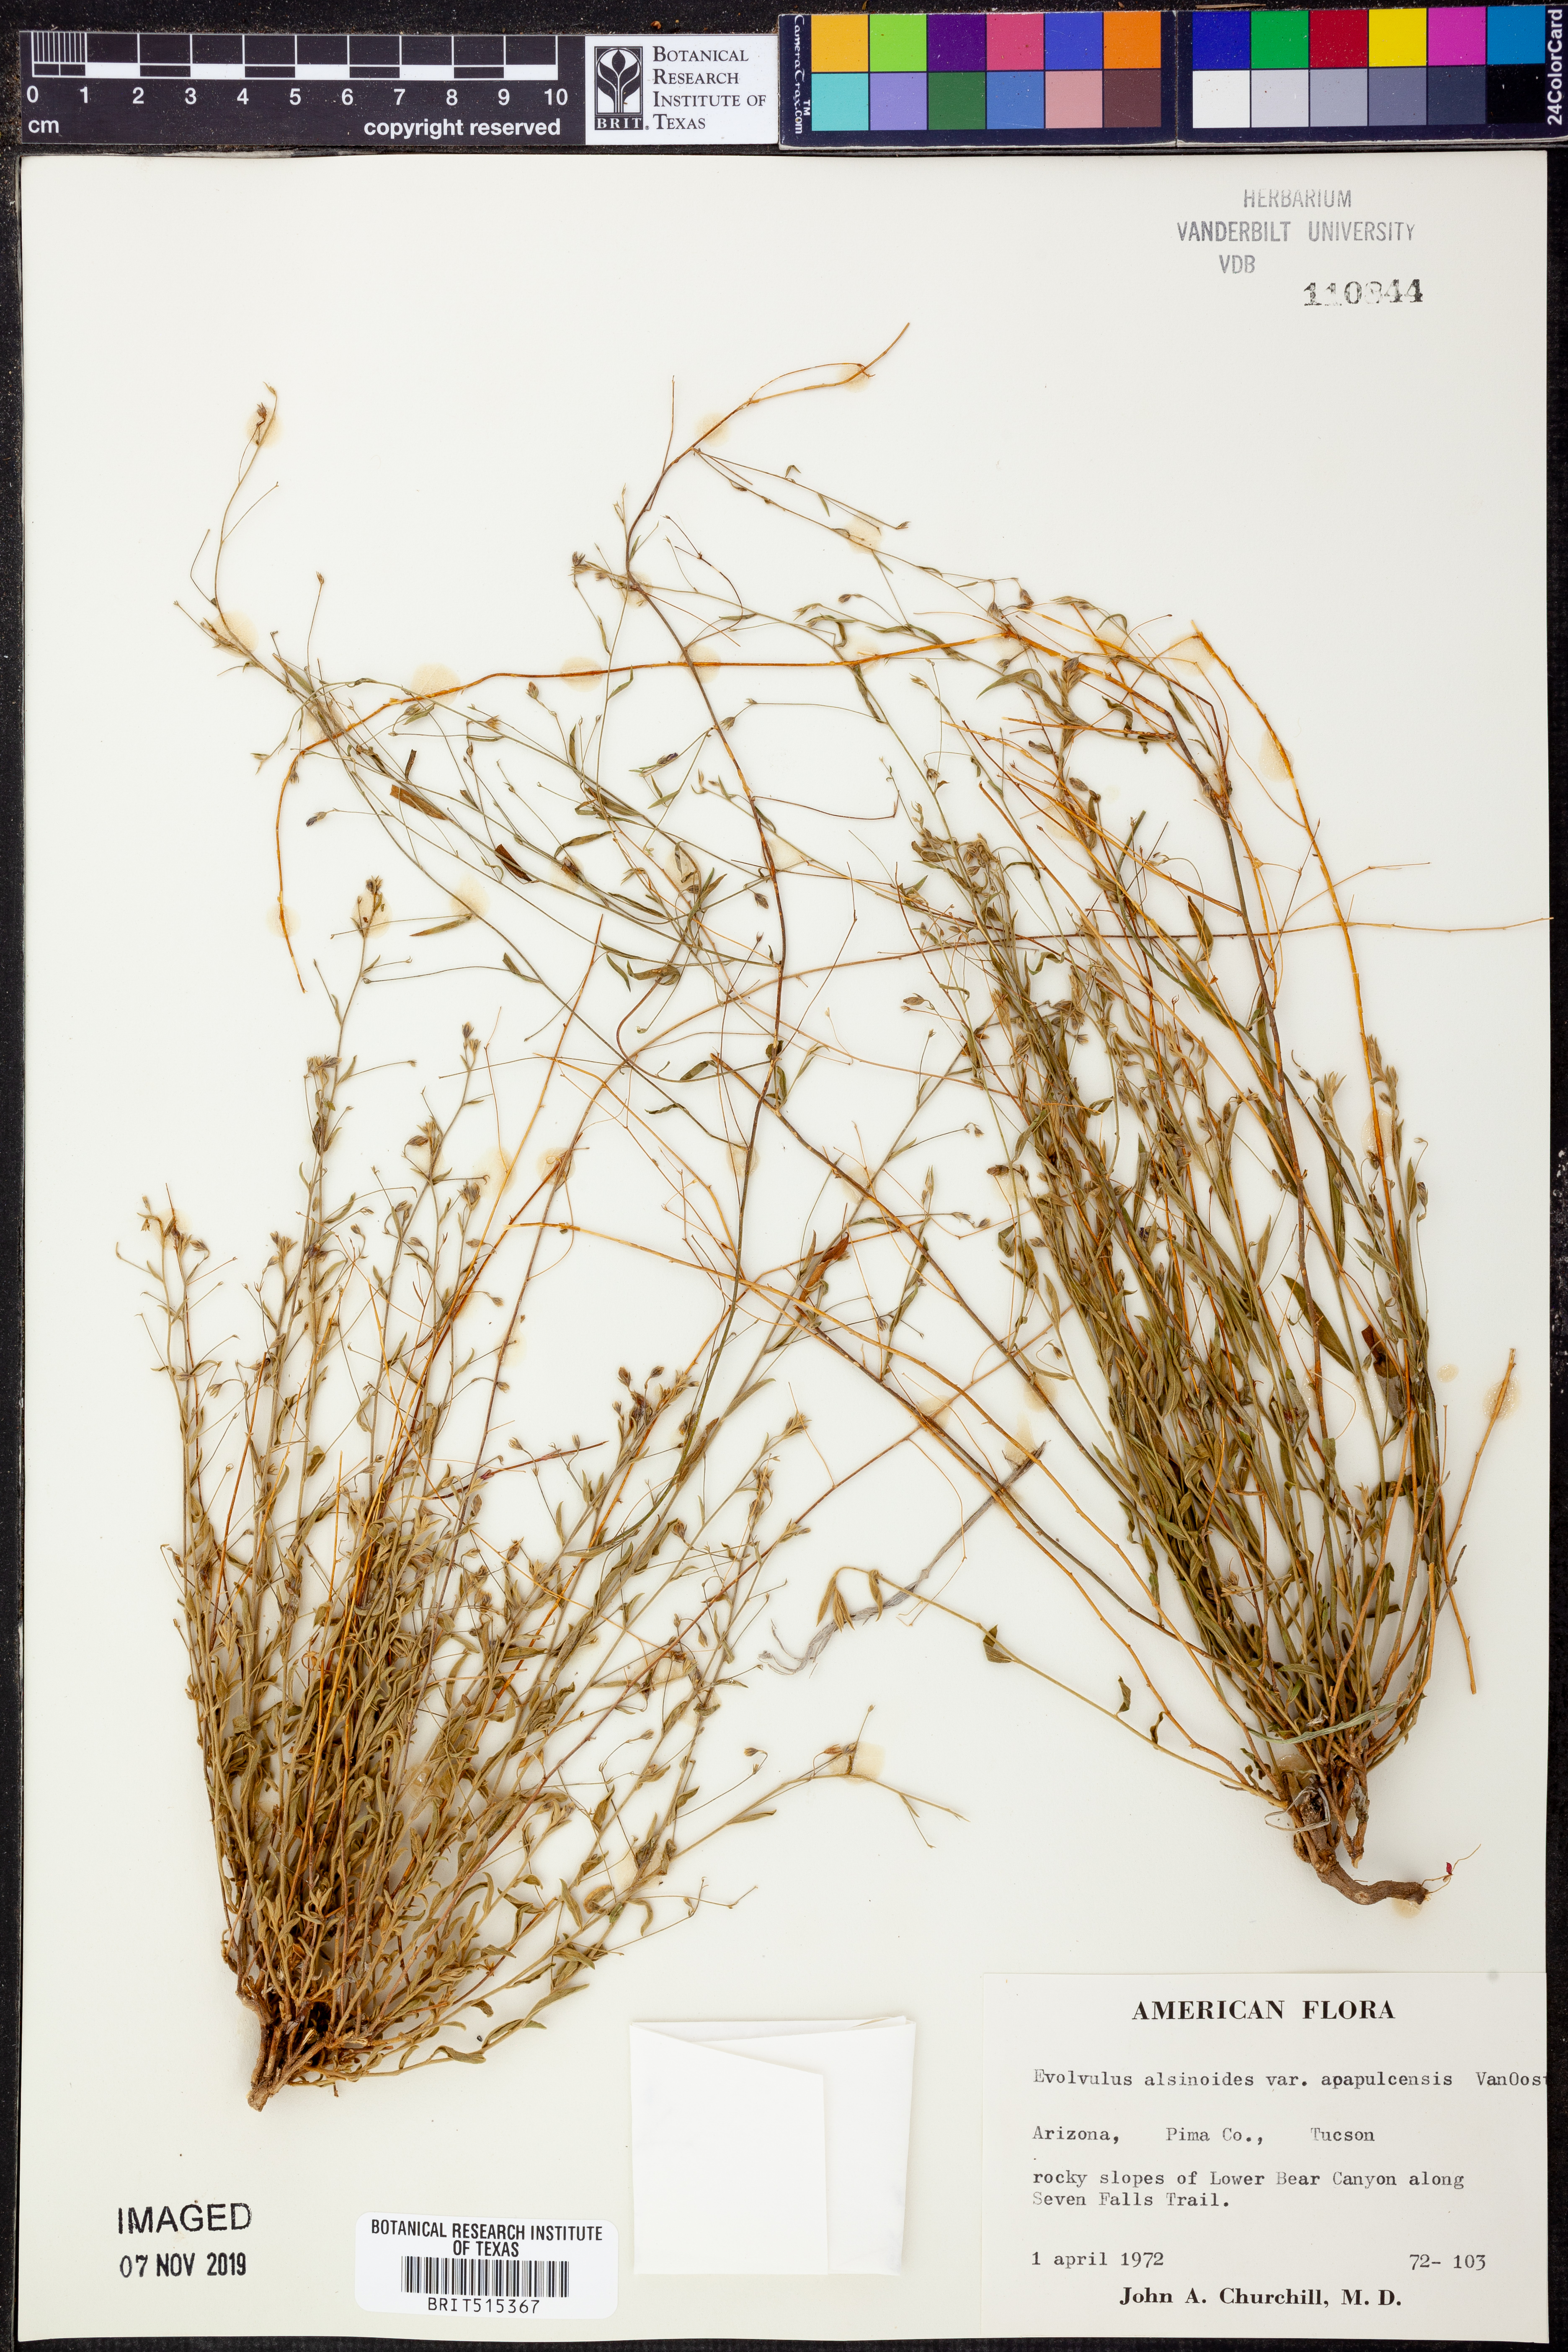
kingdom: Plantae
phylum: Tracheophyta
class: Magnoliopsida
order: Solanales
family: Convolvulaceae
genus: Evolvulus
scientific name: Evolvulus alsinoides
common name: Slender dwarf morning-glory
